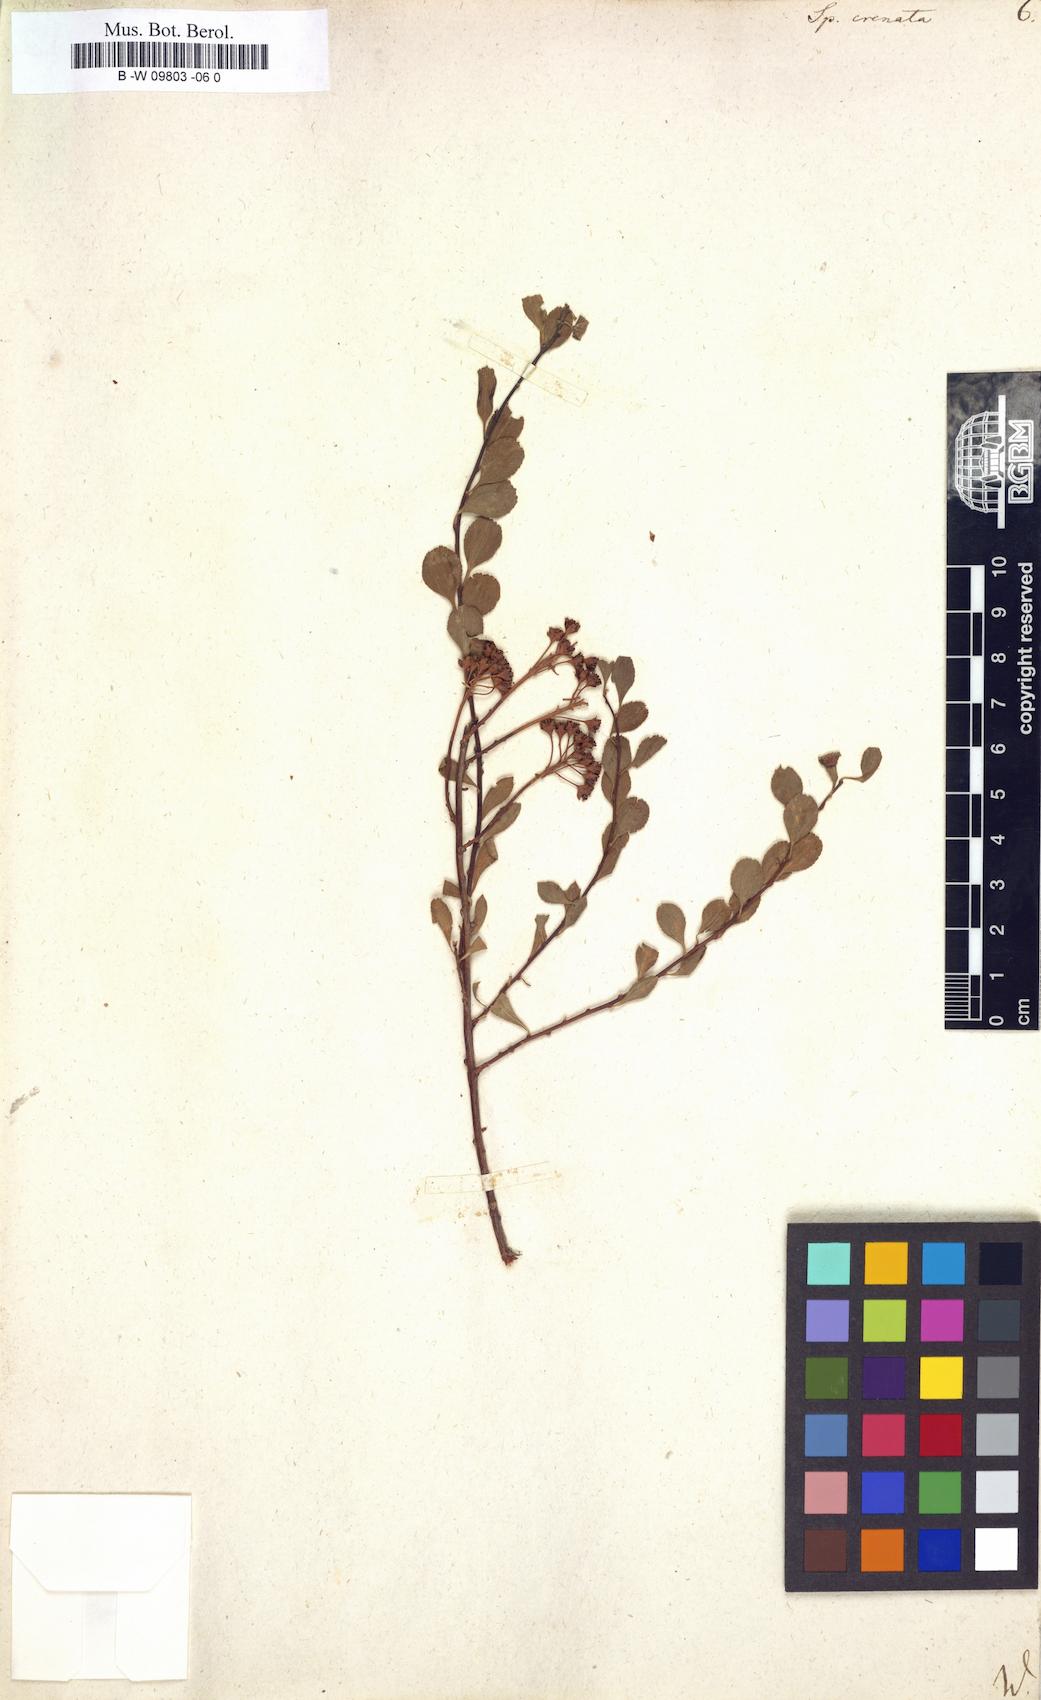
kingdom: Plantae
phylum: Tracheophyta
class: Magnoliopsida
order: Rosales
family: Rosaceae
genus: Spiraea
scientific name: Spiraea crenata
